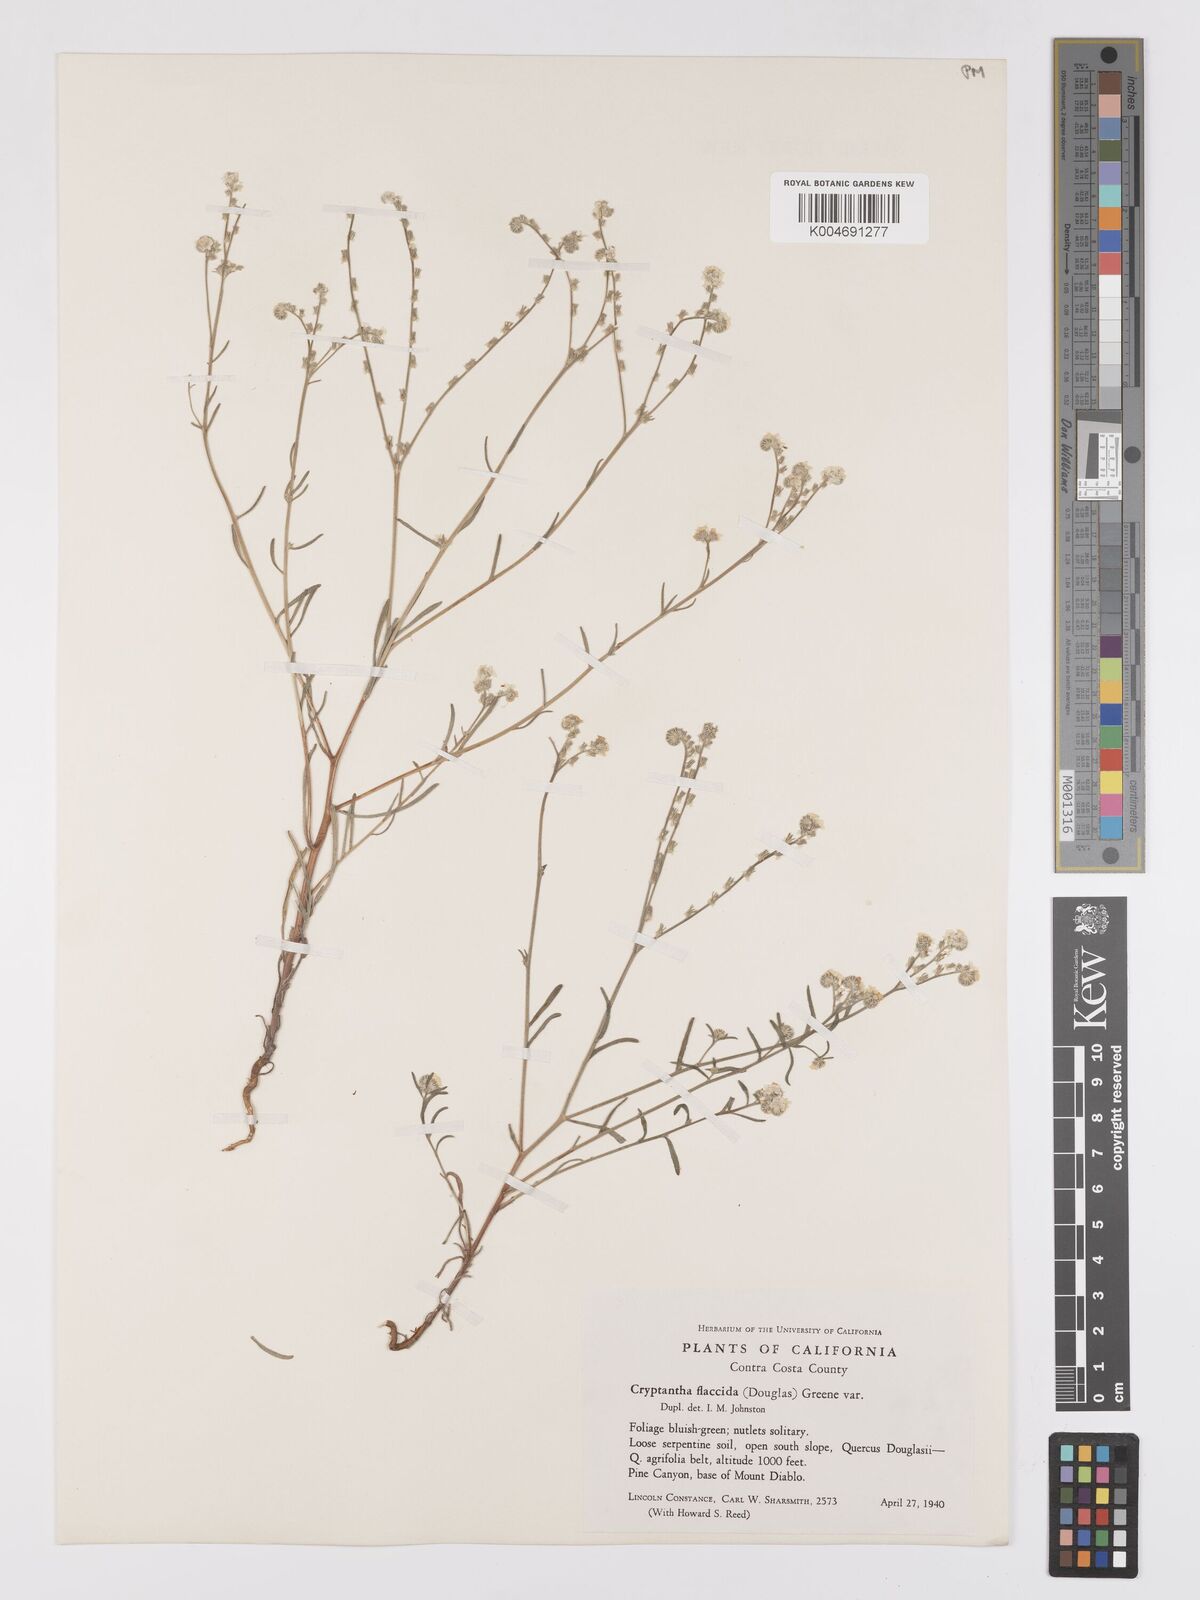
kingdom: Plantae
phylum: Tracheophyta
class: Magnoliopsida
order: Boraginales
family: Boraginaceae
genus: Cryptantha
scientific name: Cryptantha flaccida
